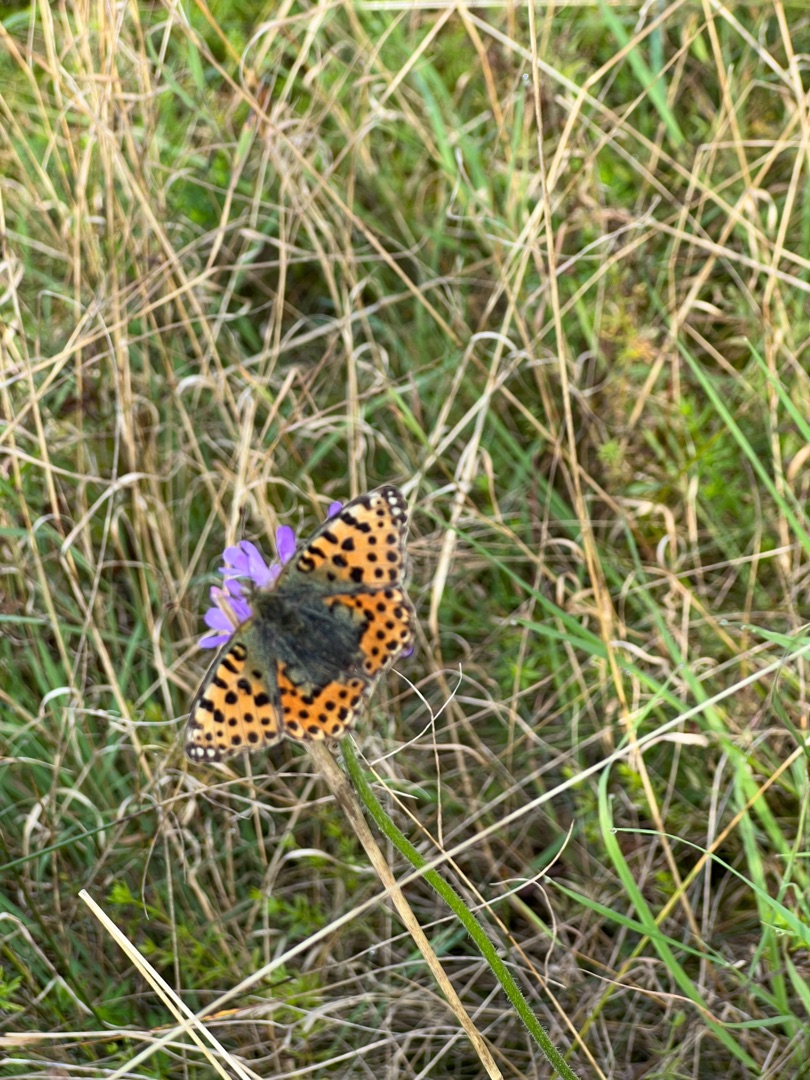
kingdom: Animalia
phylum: Arthropoda
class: Insecta
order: Lepidoptera
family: Nymphalidae
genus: Issoria
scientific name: Issoria lathonia
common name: Storplettet perlemorsommerfugl
